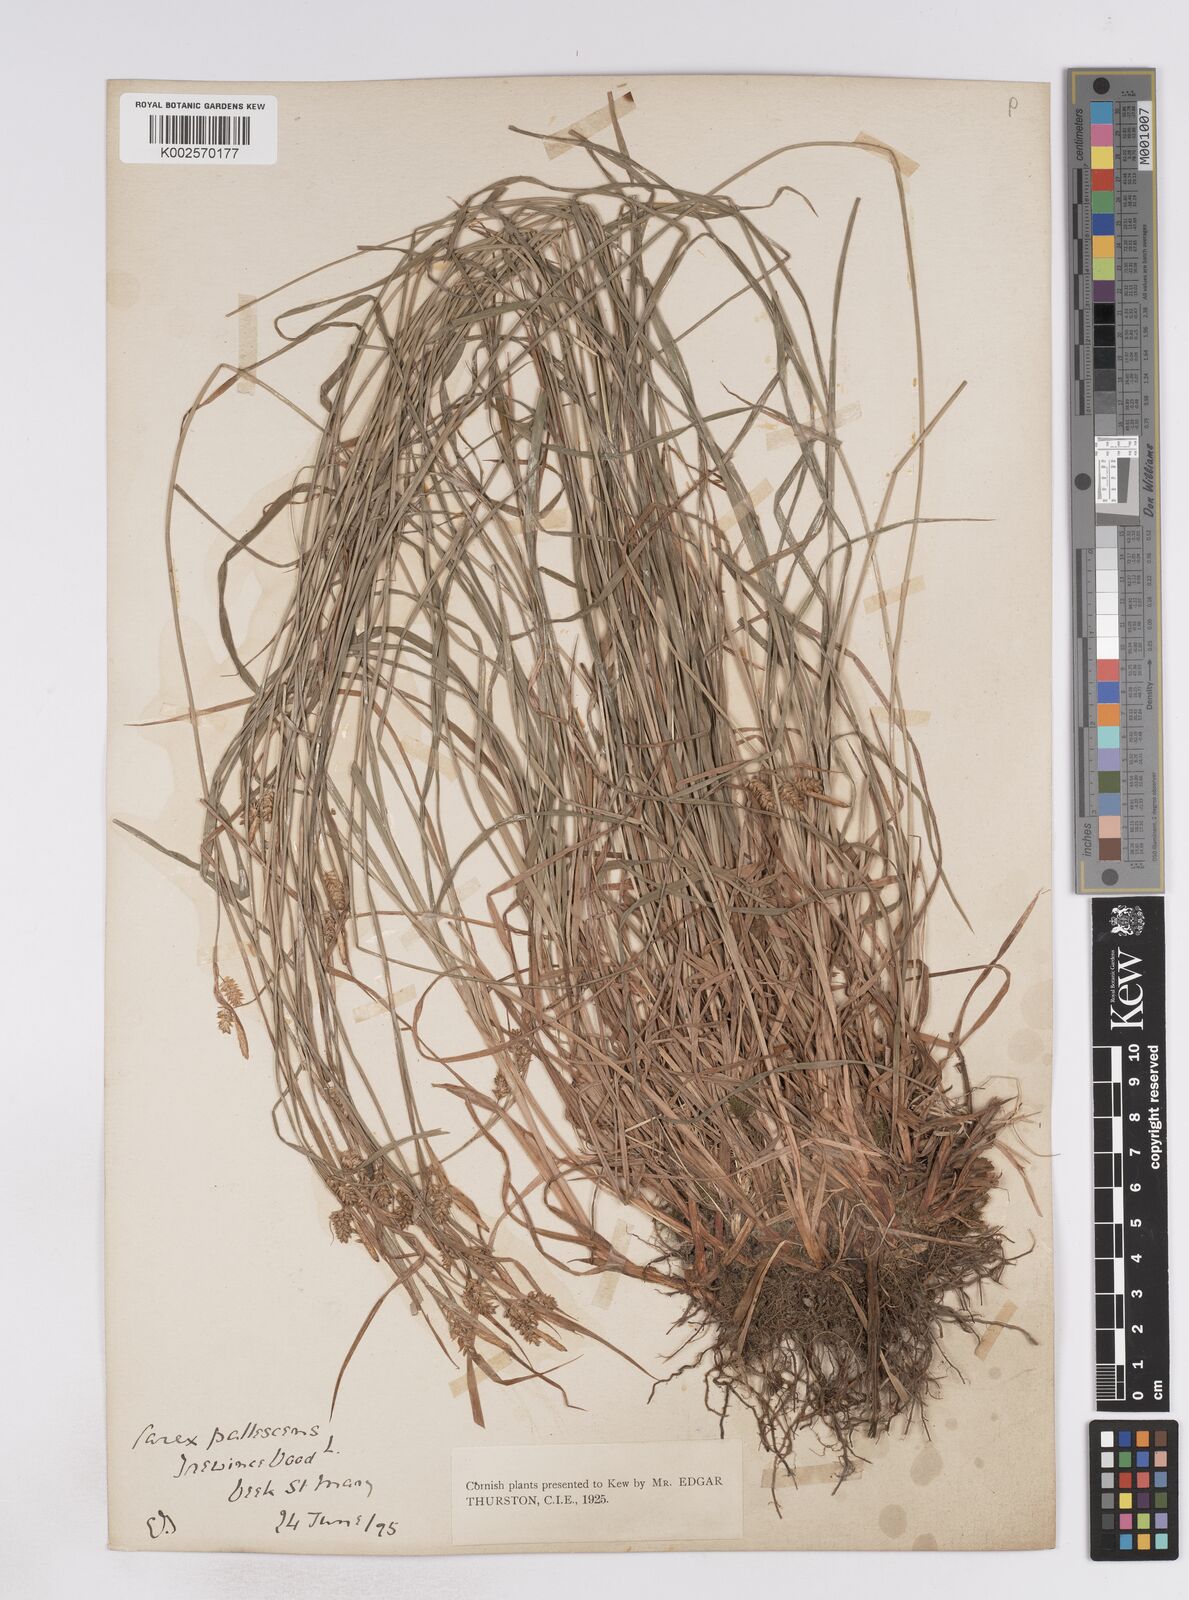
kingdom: Plantae
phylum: Tracheophyta
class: Liliopsida
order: Poales
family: Cyperaceae
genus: Carex
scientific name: Carex pallescens
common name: Pale sedge
